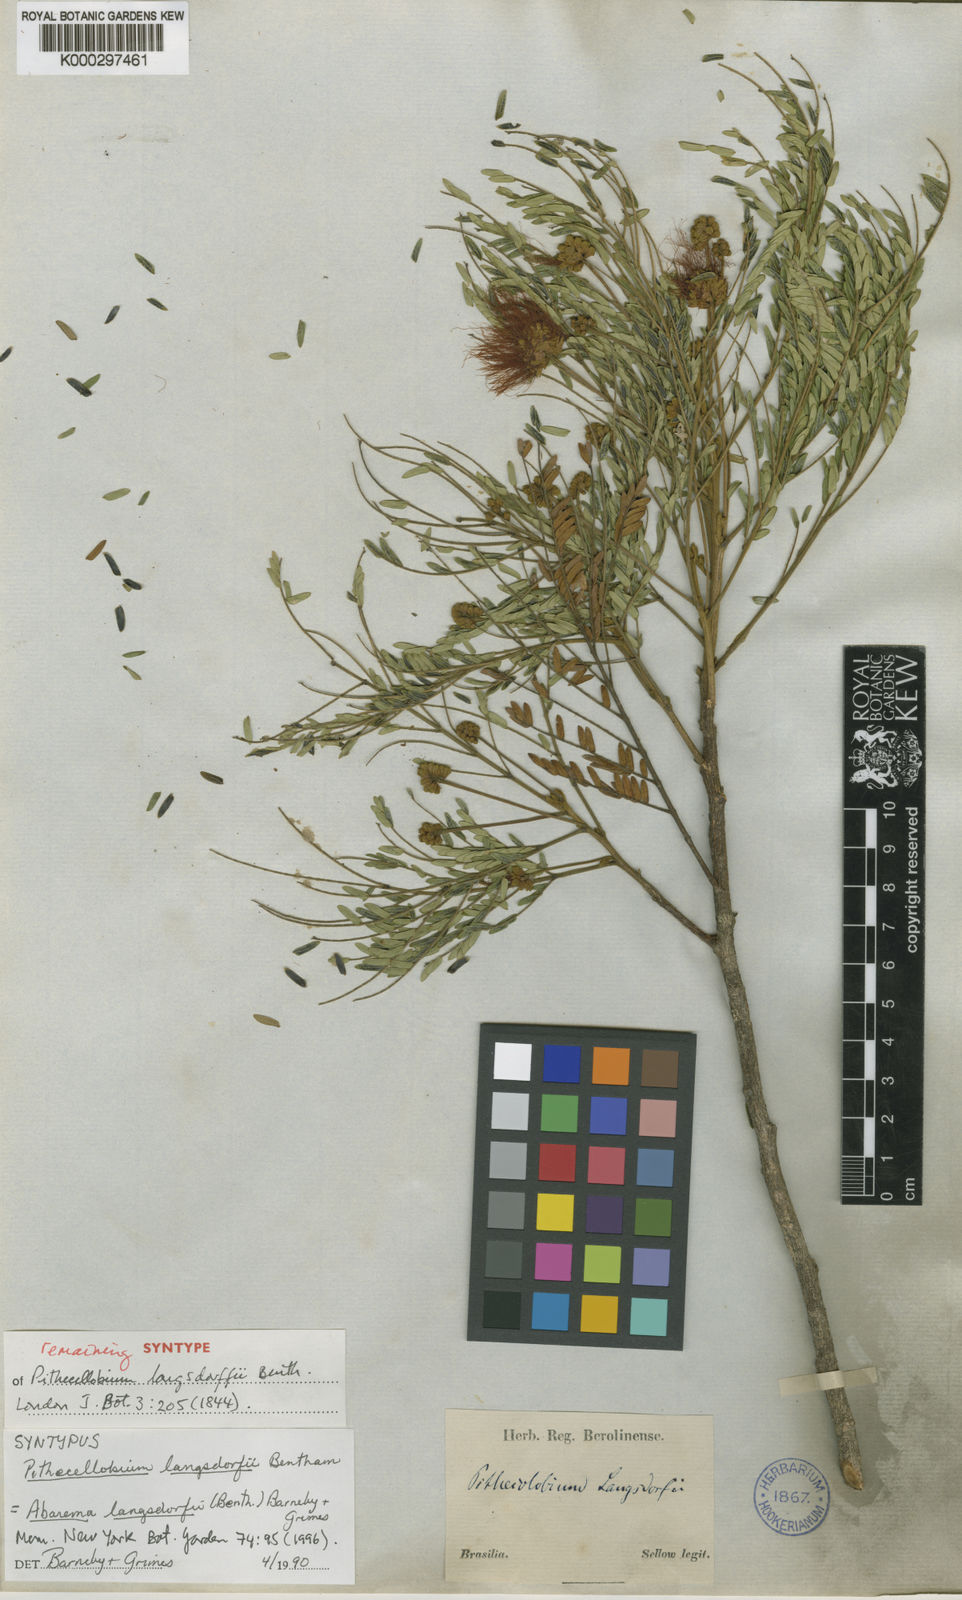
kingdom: Plantae
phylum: Tracheophyta
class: Magnoliopsida
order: Fabales
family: Fabaceae
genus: Jupunba
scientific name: Jupunba langsdorffii
